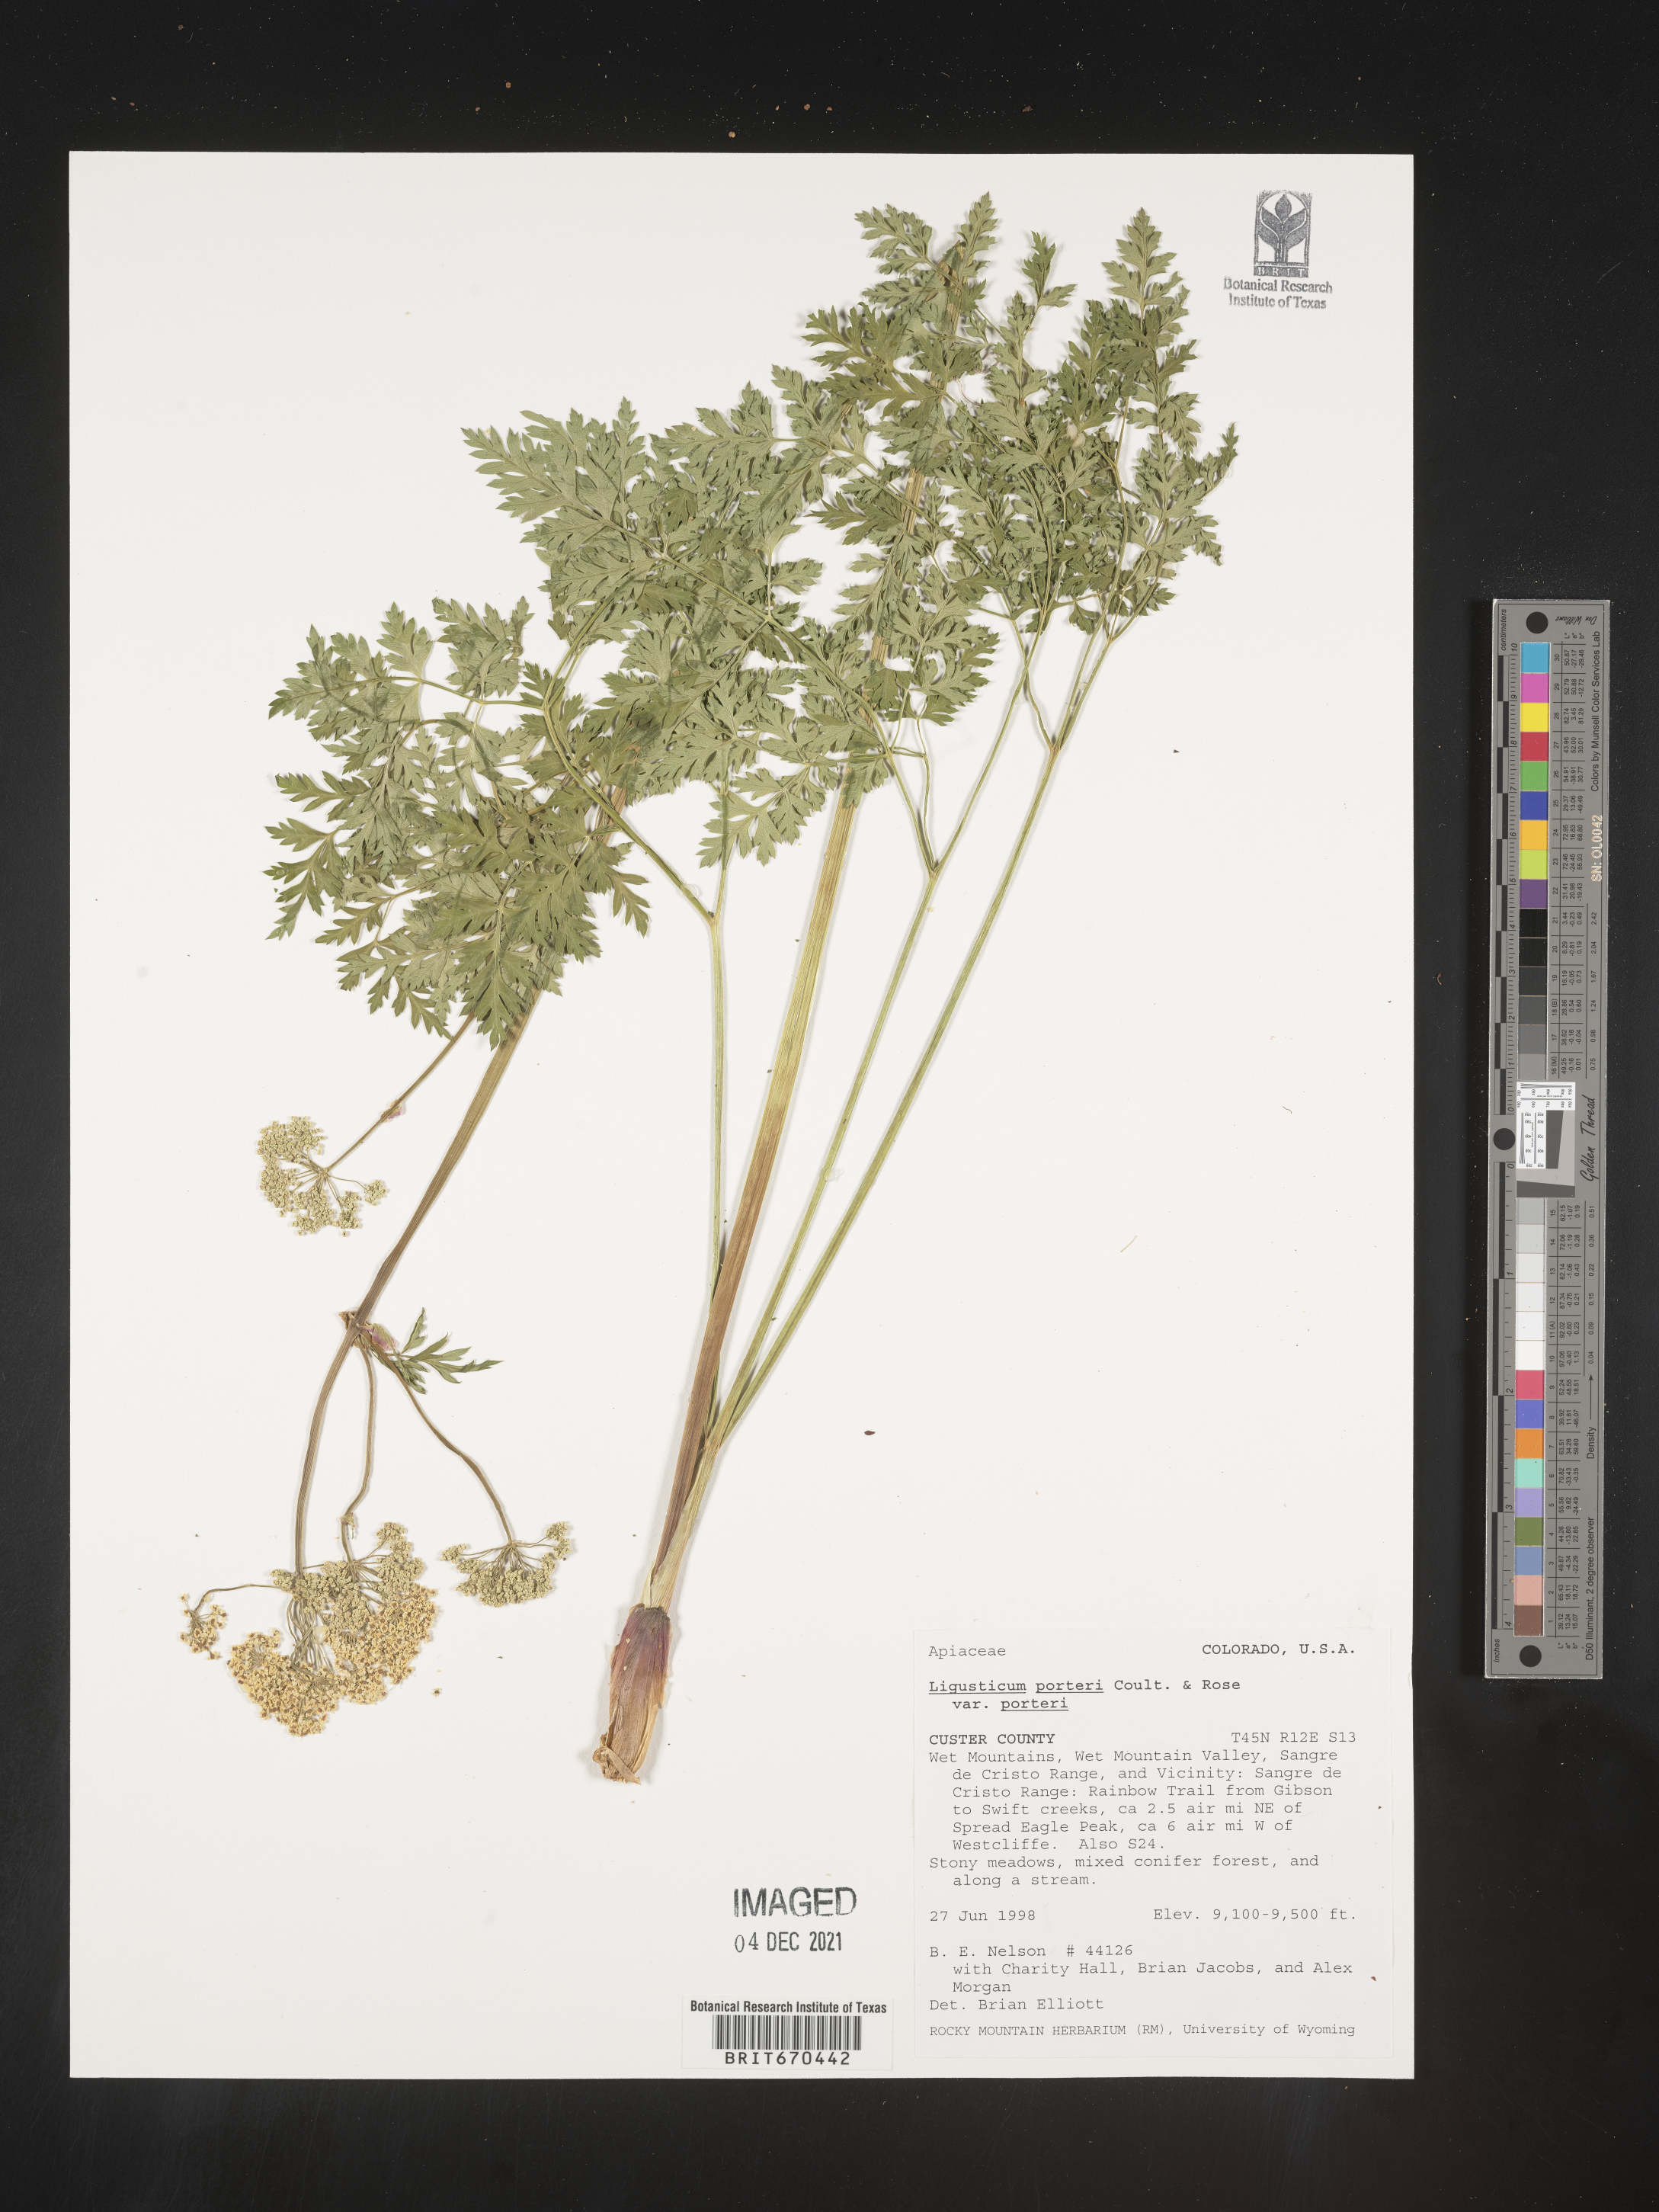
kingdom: Plantae
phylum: Tracheophyta
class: Magnoliopsida
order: Apiales
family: Apiaceae
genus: Ligusticum
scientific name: Ligusticum
